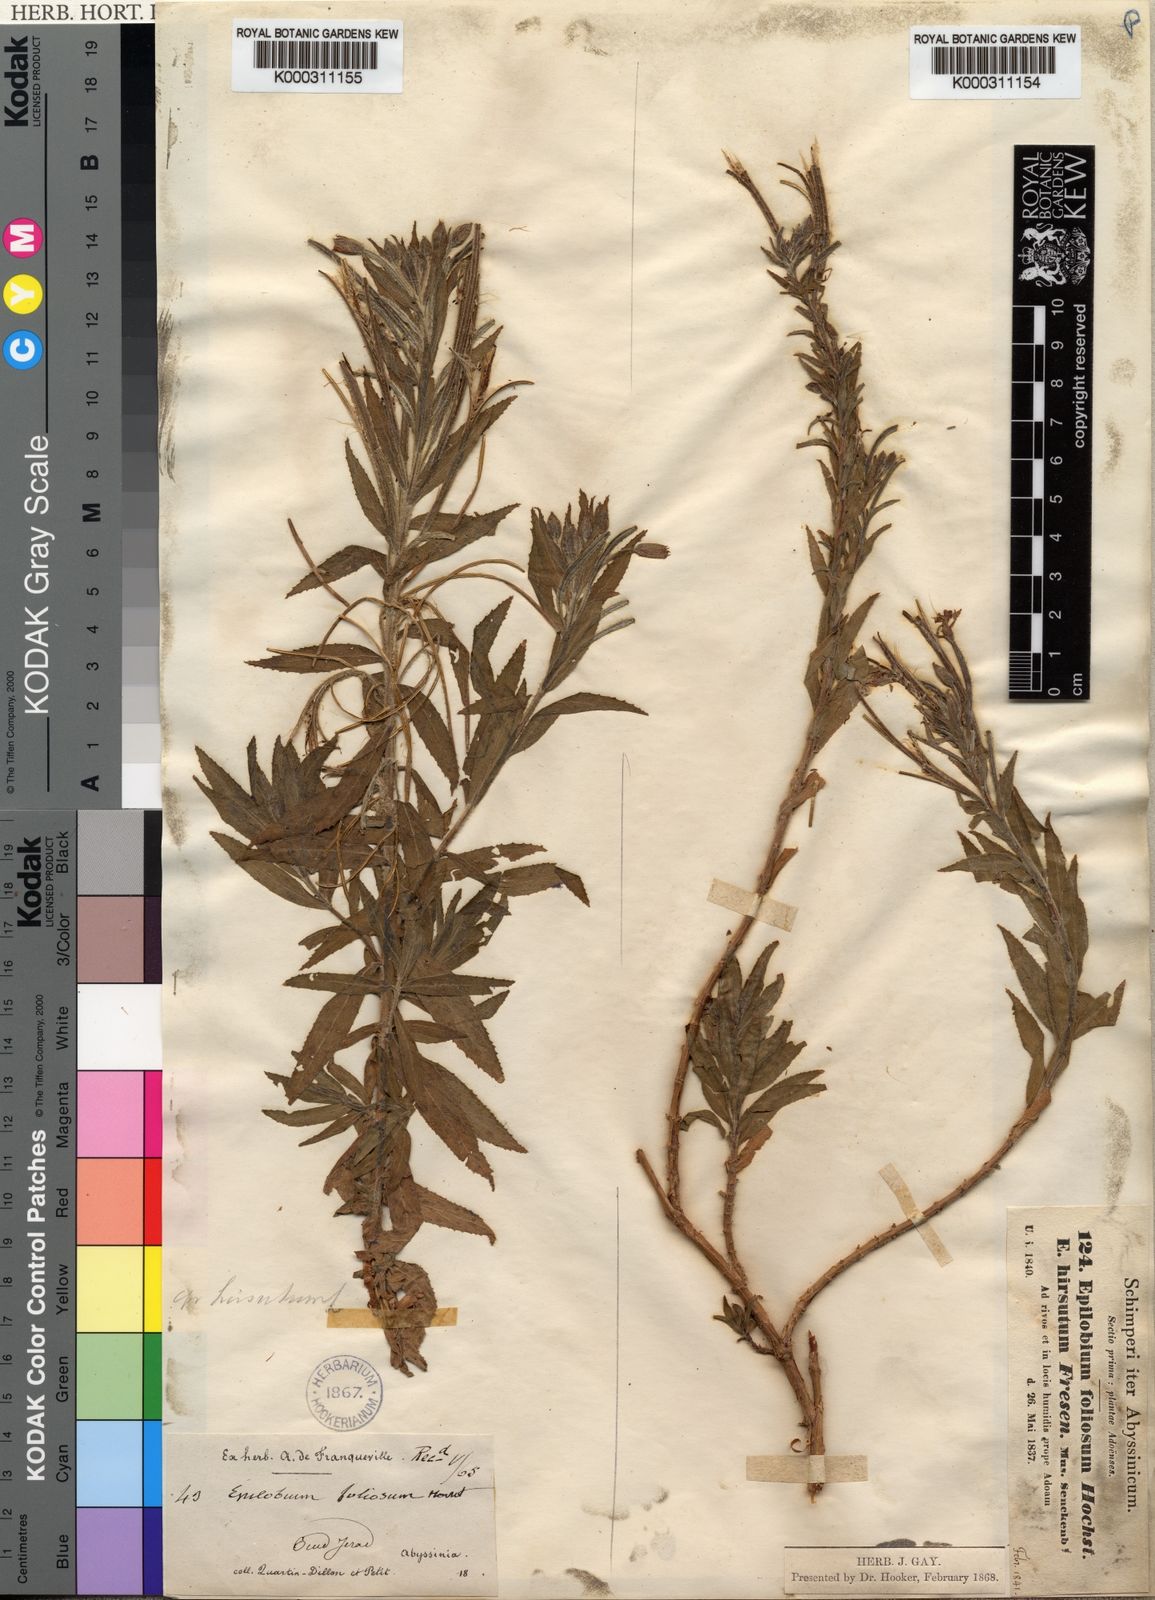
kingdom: Plantae
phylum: Tracheophyta
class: Magnoliopsida
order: Myrtales
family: Onagraceae
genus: Epilobium
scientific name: Epilobium hirsutum
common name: Great willowherb
